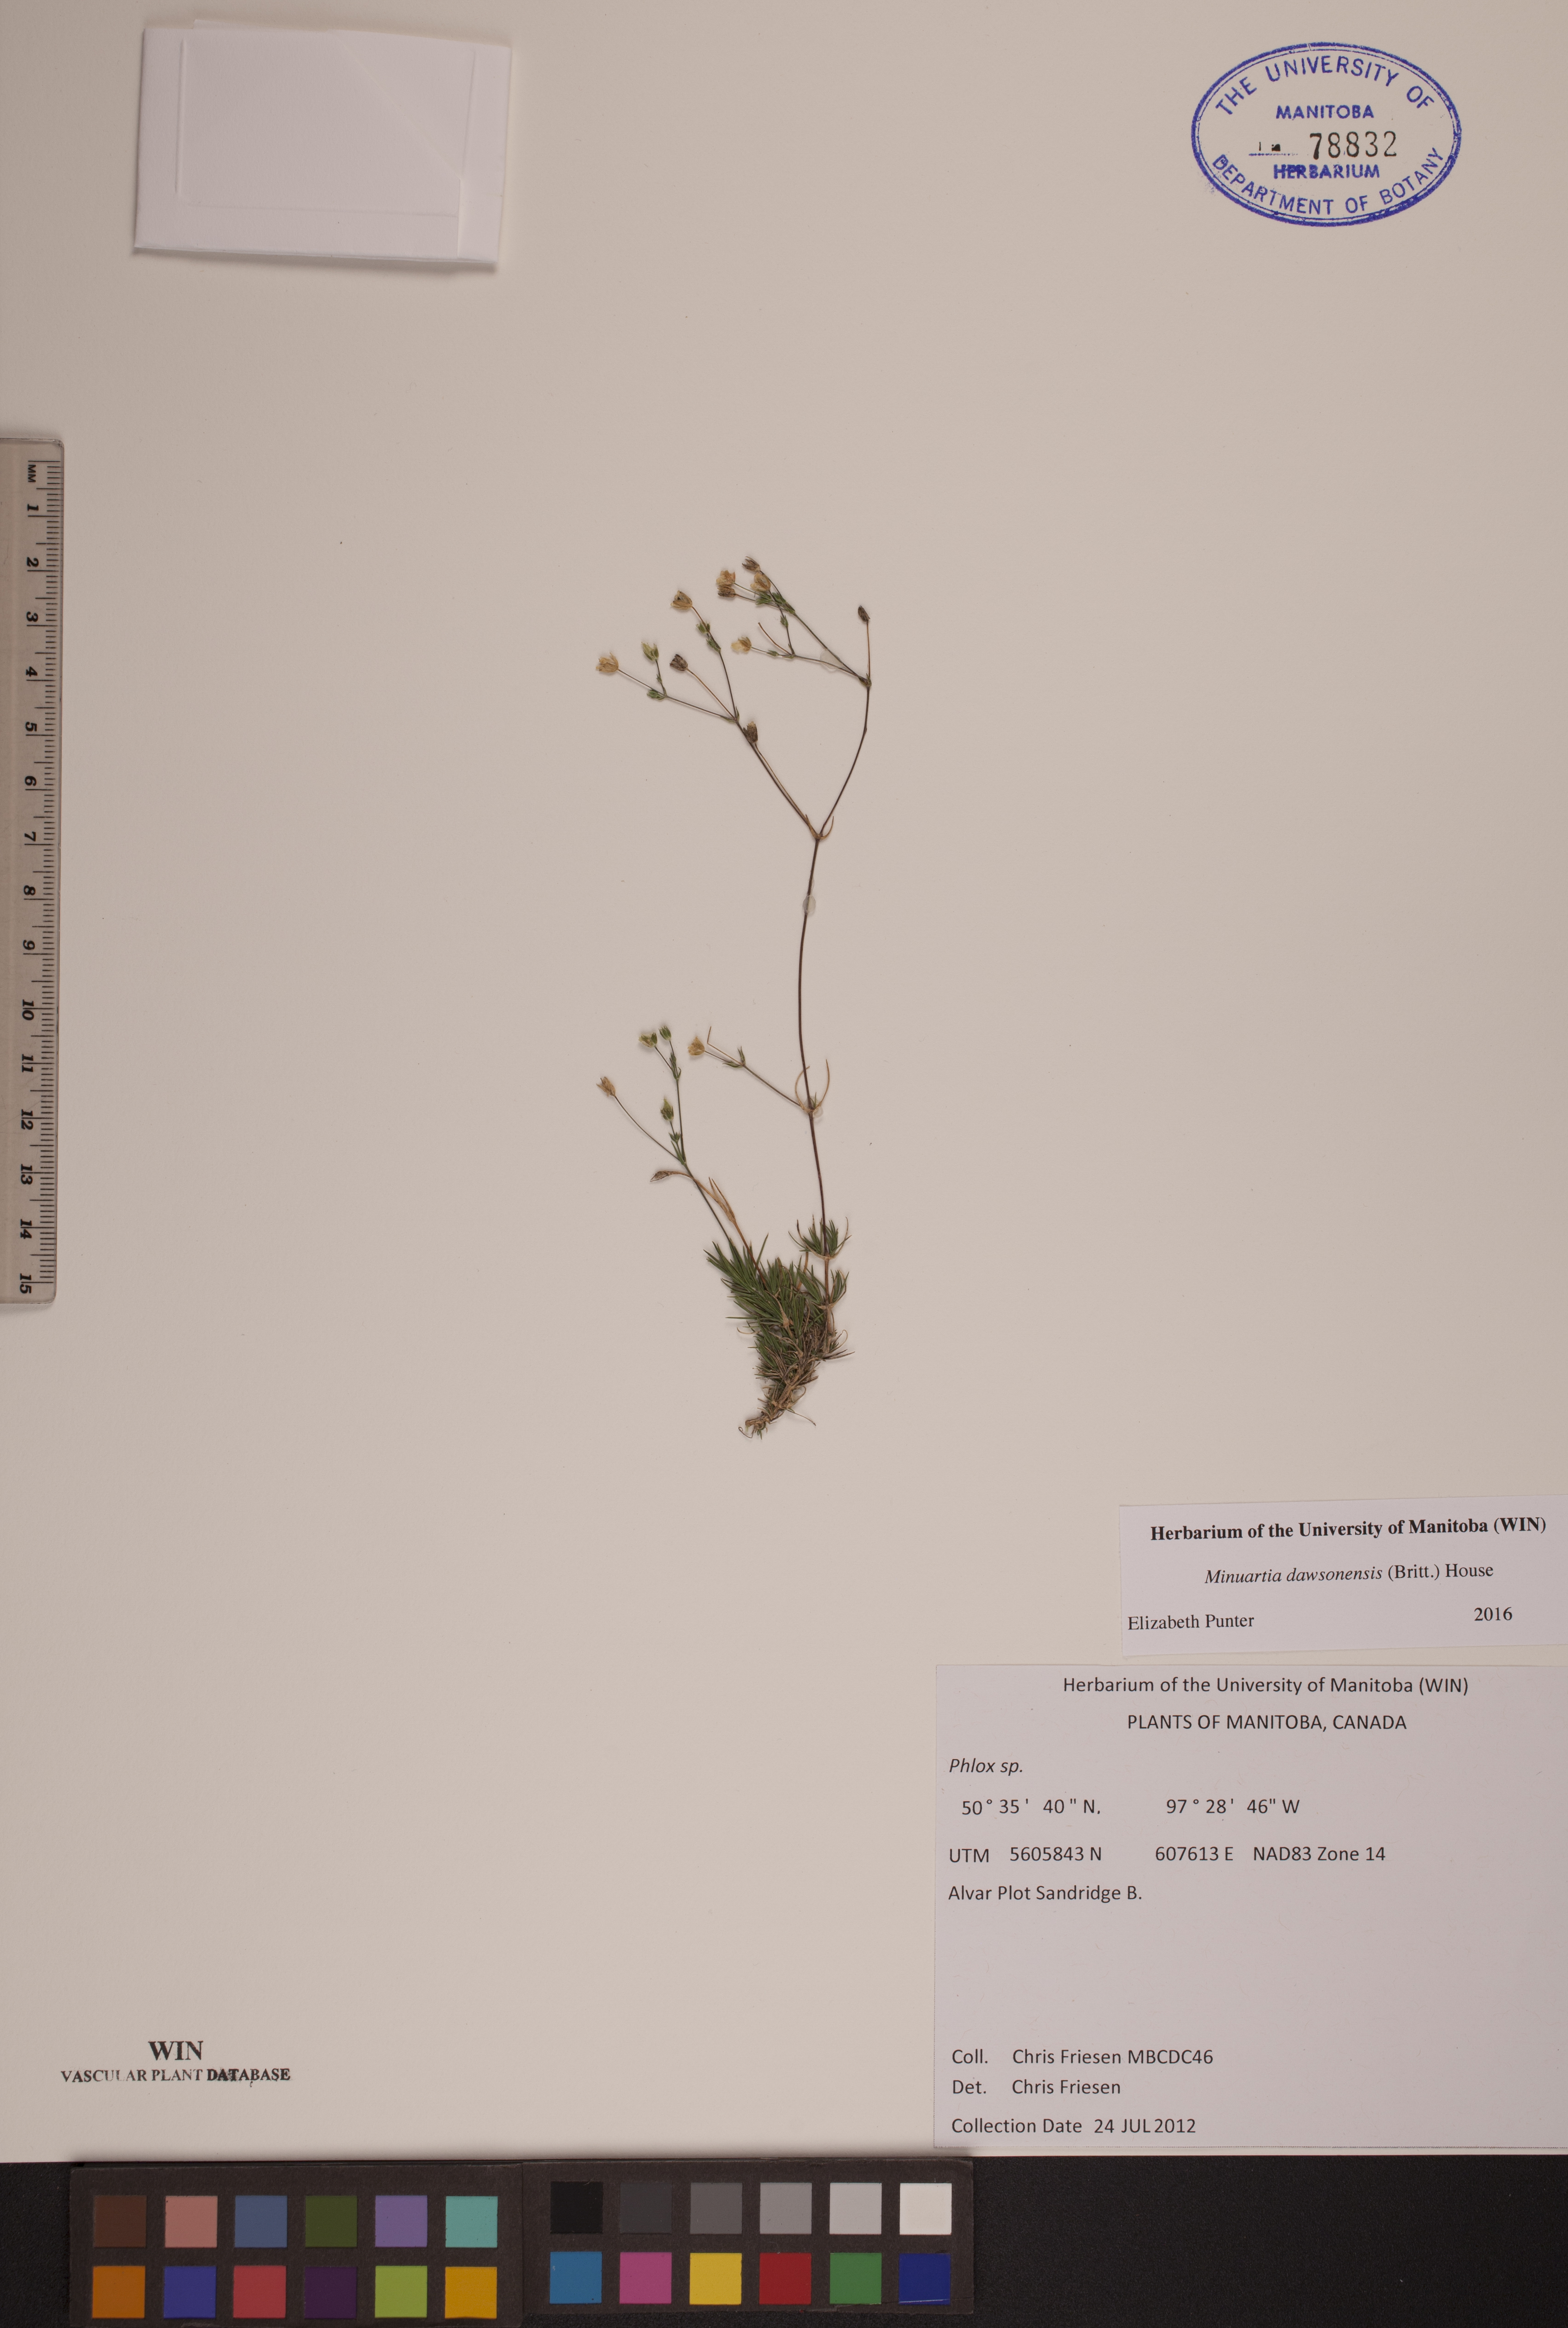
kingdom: Plantae
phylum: Tracheophyta
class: Magnoliopsida
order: Caryophyllales
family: Caryophyllaceae
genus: Sabulina
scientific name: Sabulina dawsonensis
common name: Dawson's cockle
